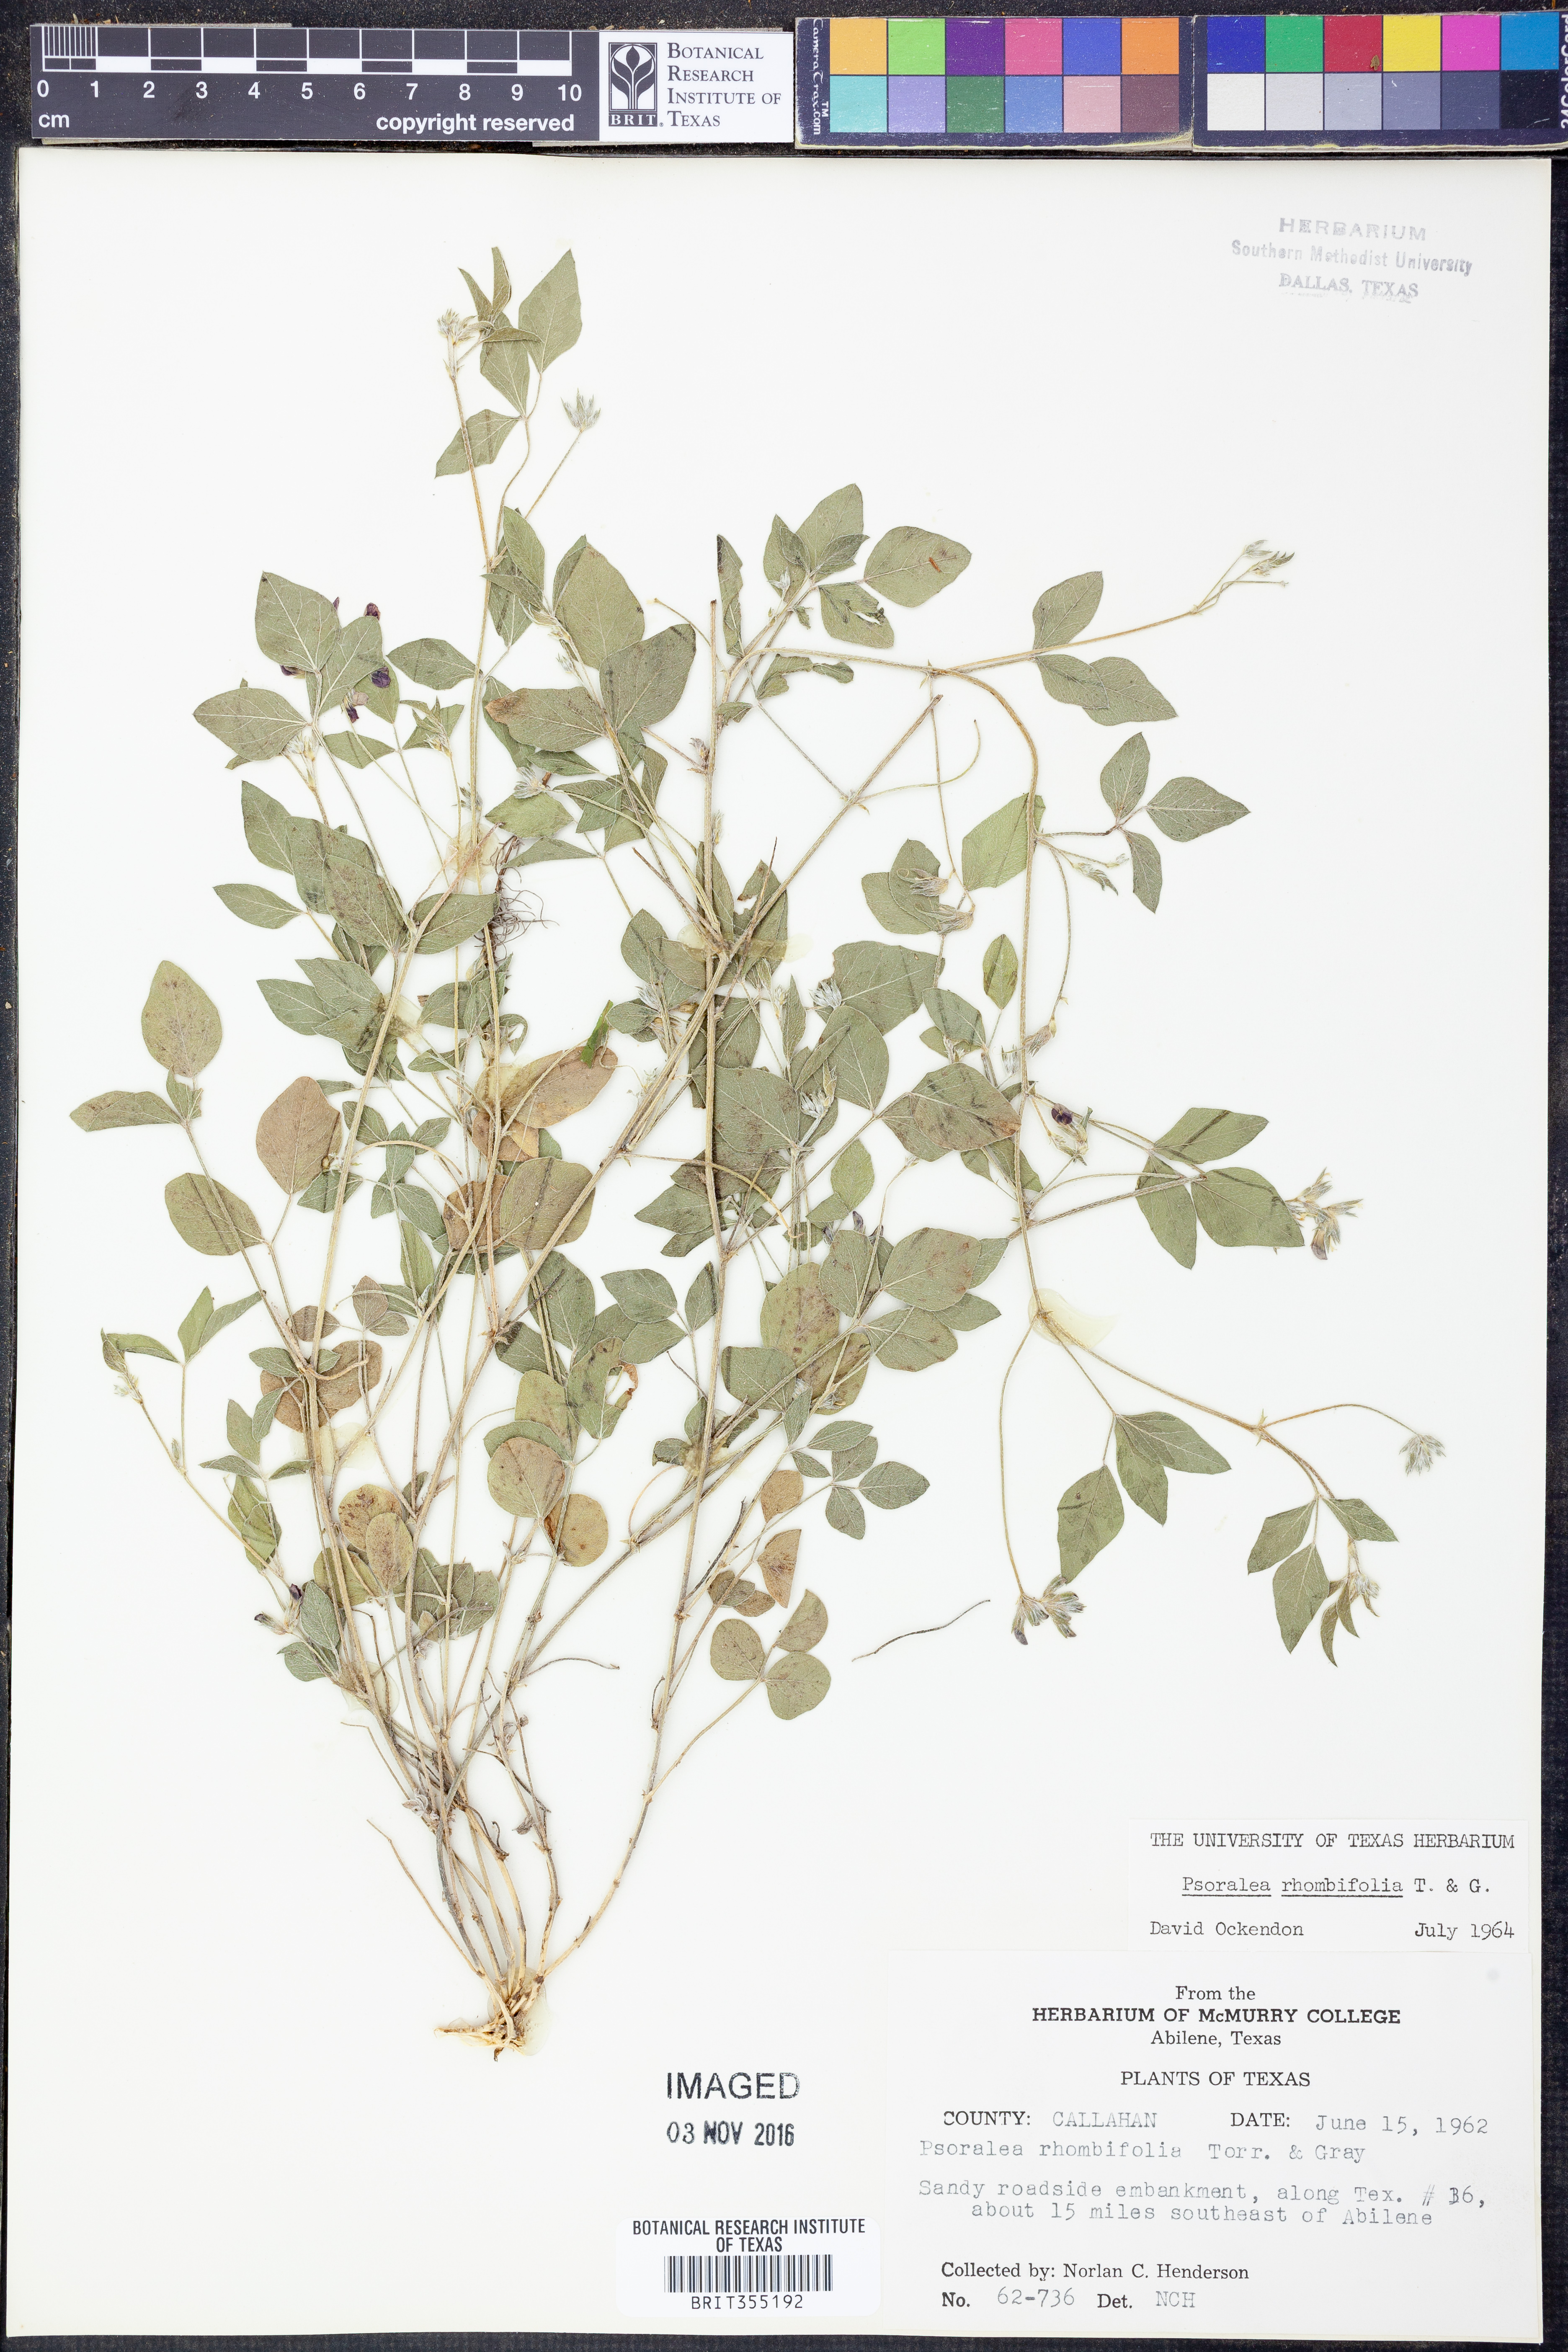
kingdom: Plantae
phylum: Tracheophyta
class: Magnoliopsida
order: Fabales
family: Fabaceae
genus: Pediomelum
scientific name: Pediomelum rhombifolium
